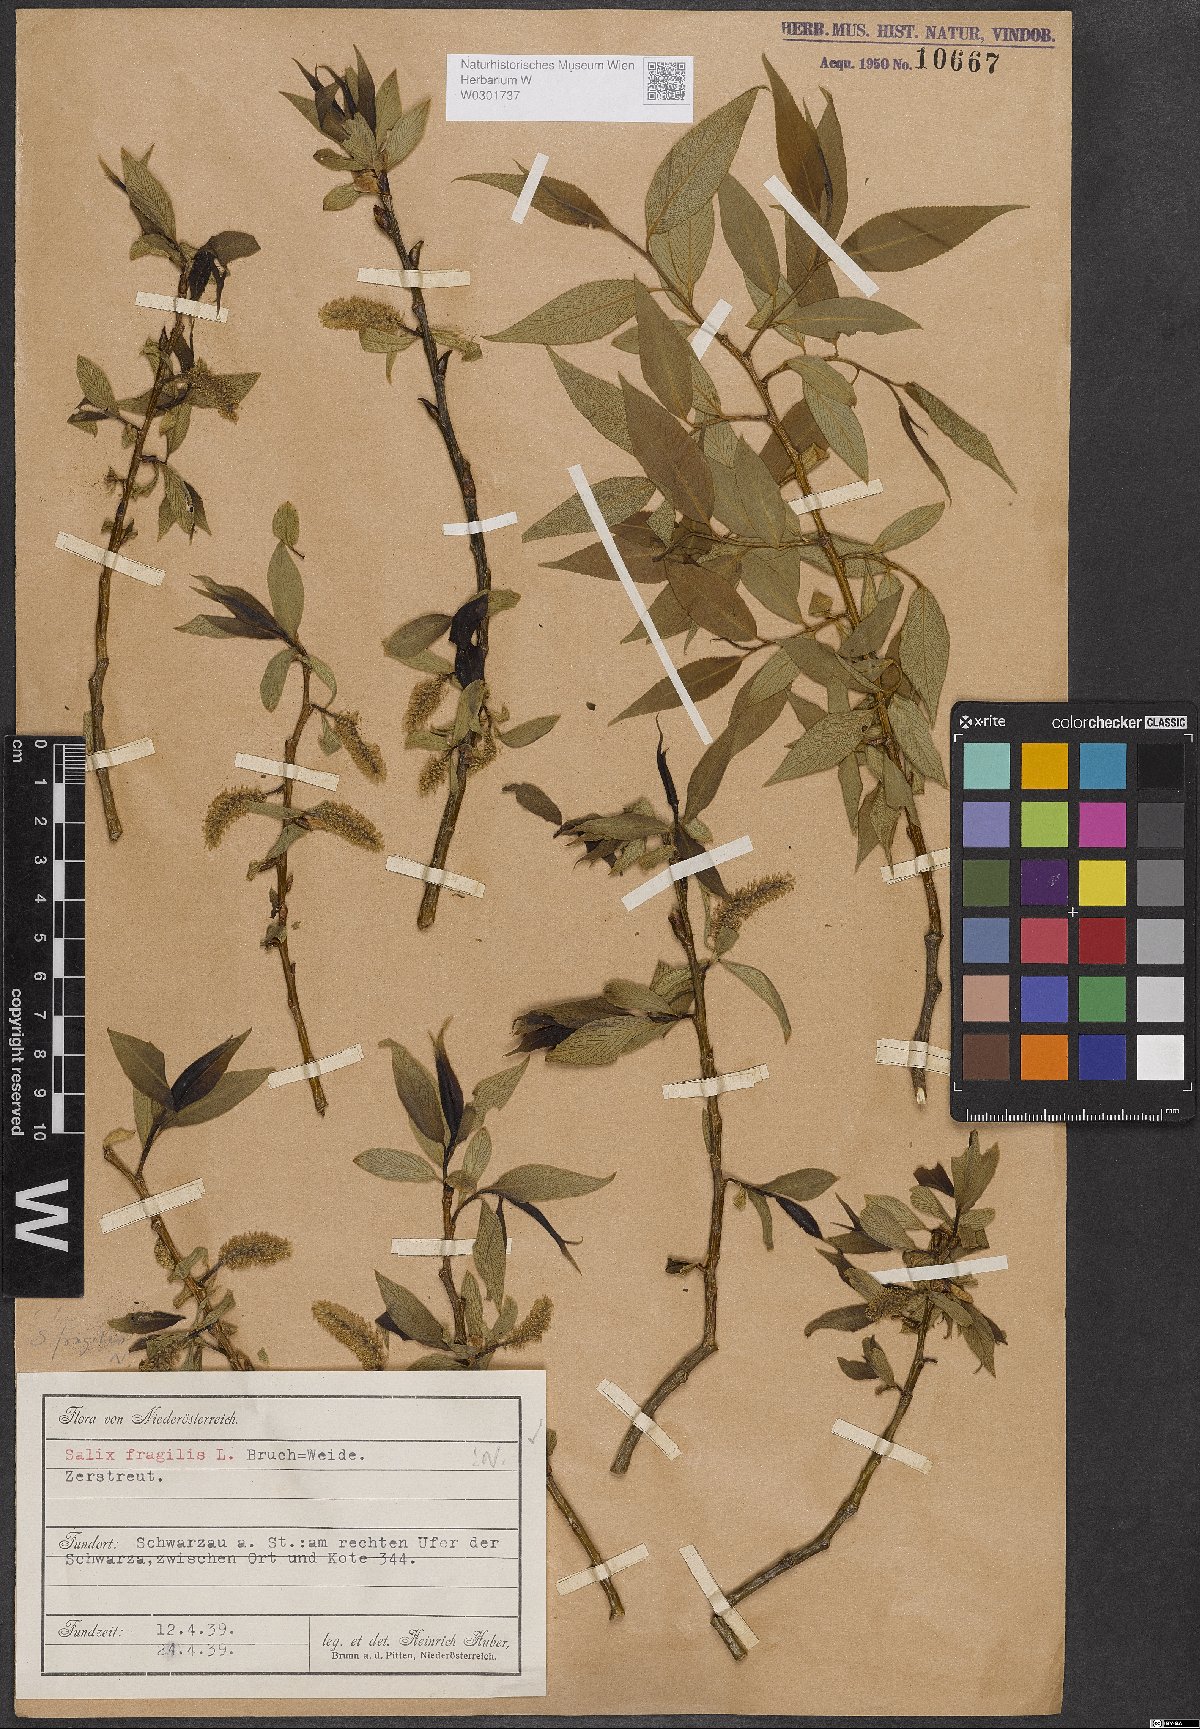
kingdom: Plantae
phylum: Tracheophyta
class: Magnoliopsida
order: Malpighiales
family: Salicaceae
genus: Salix
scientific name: Salix fragilis
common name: Crack willow
